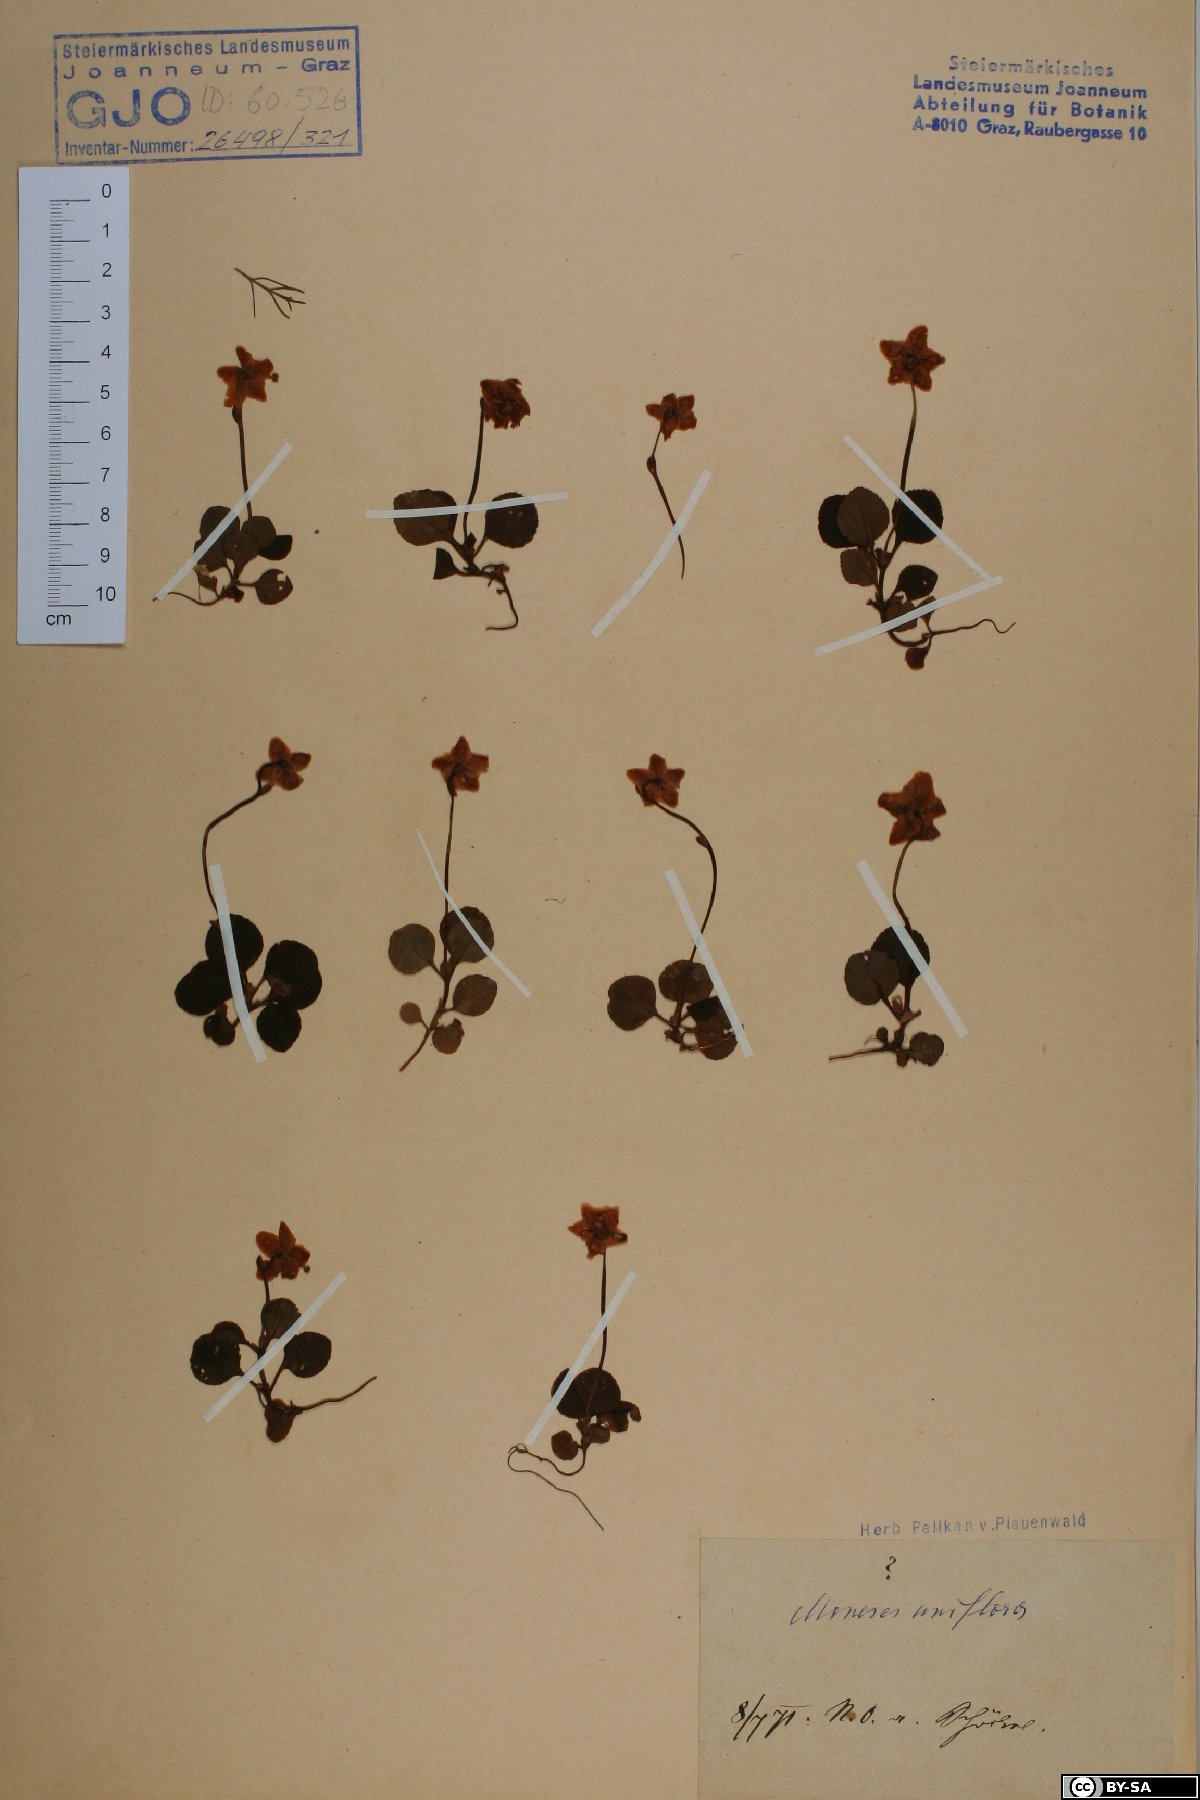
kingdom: Plantae
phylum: Tracheophyta
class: Magnoliopsida
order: Ericales
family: Ericaceae
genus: Moneses
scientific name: Moneses uniflora
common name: One-flowered wintergreen
